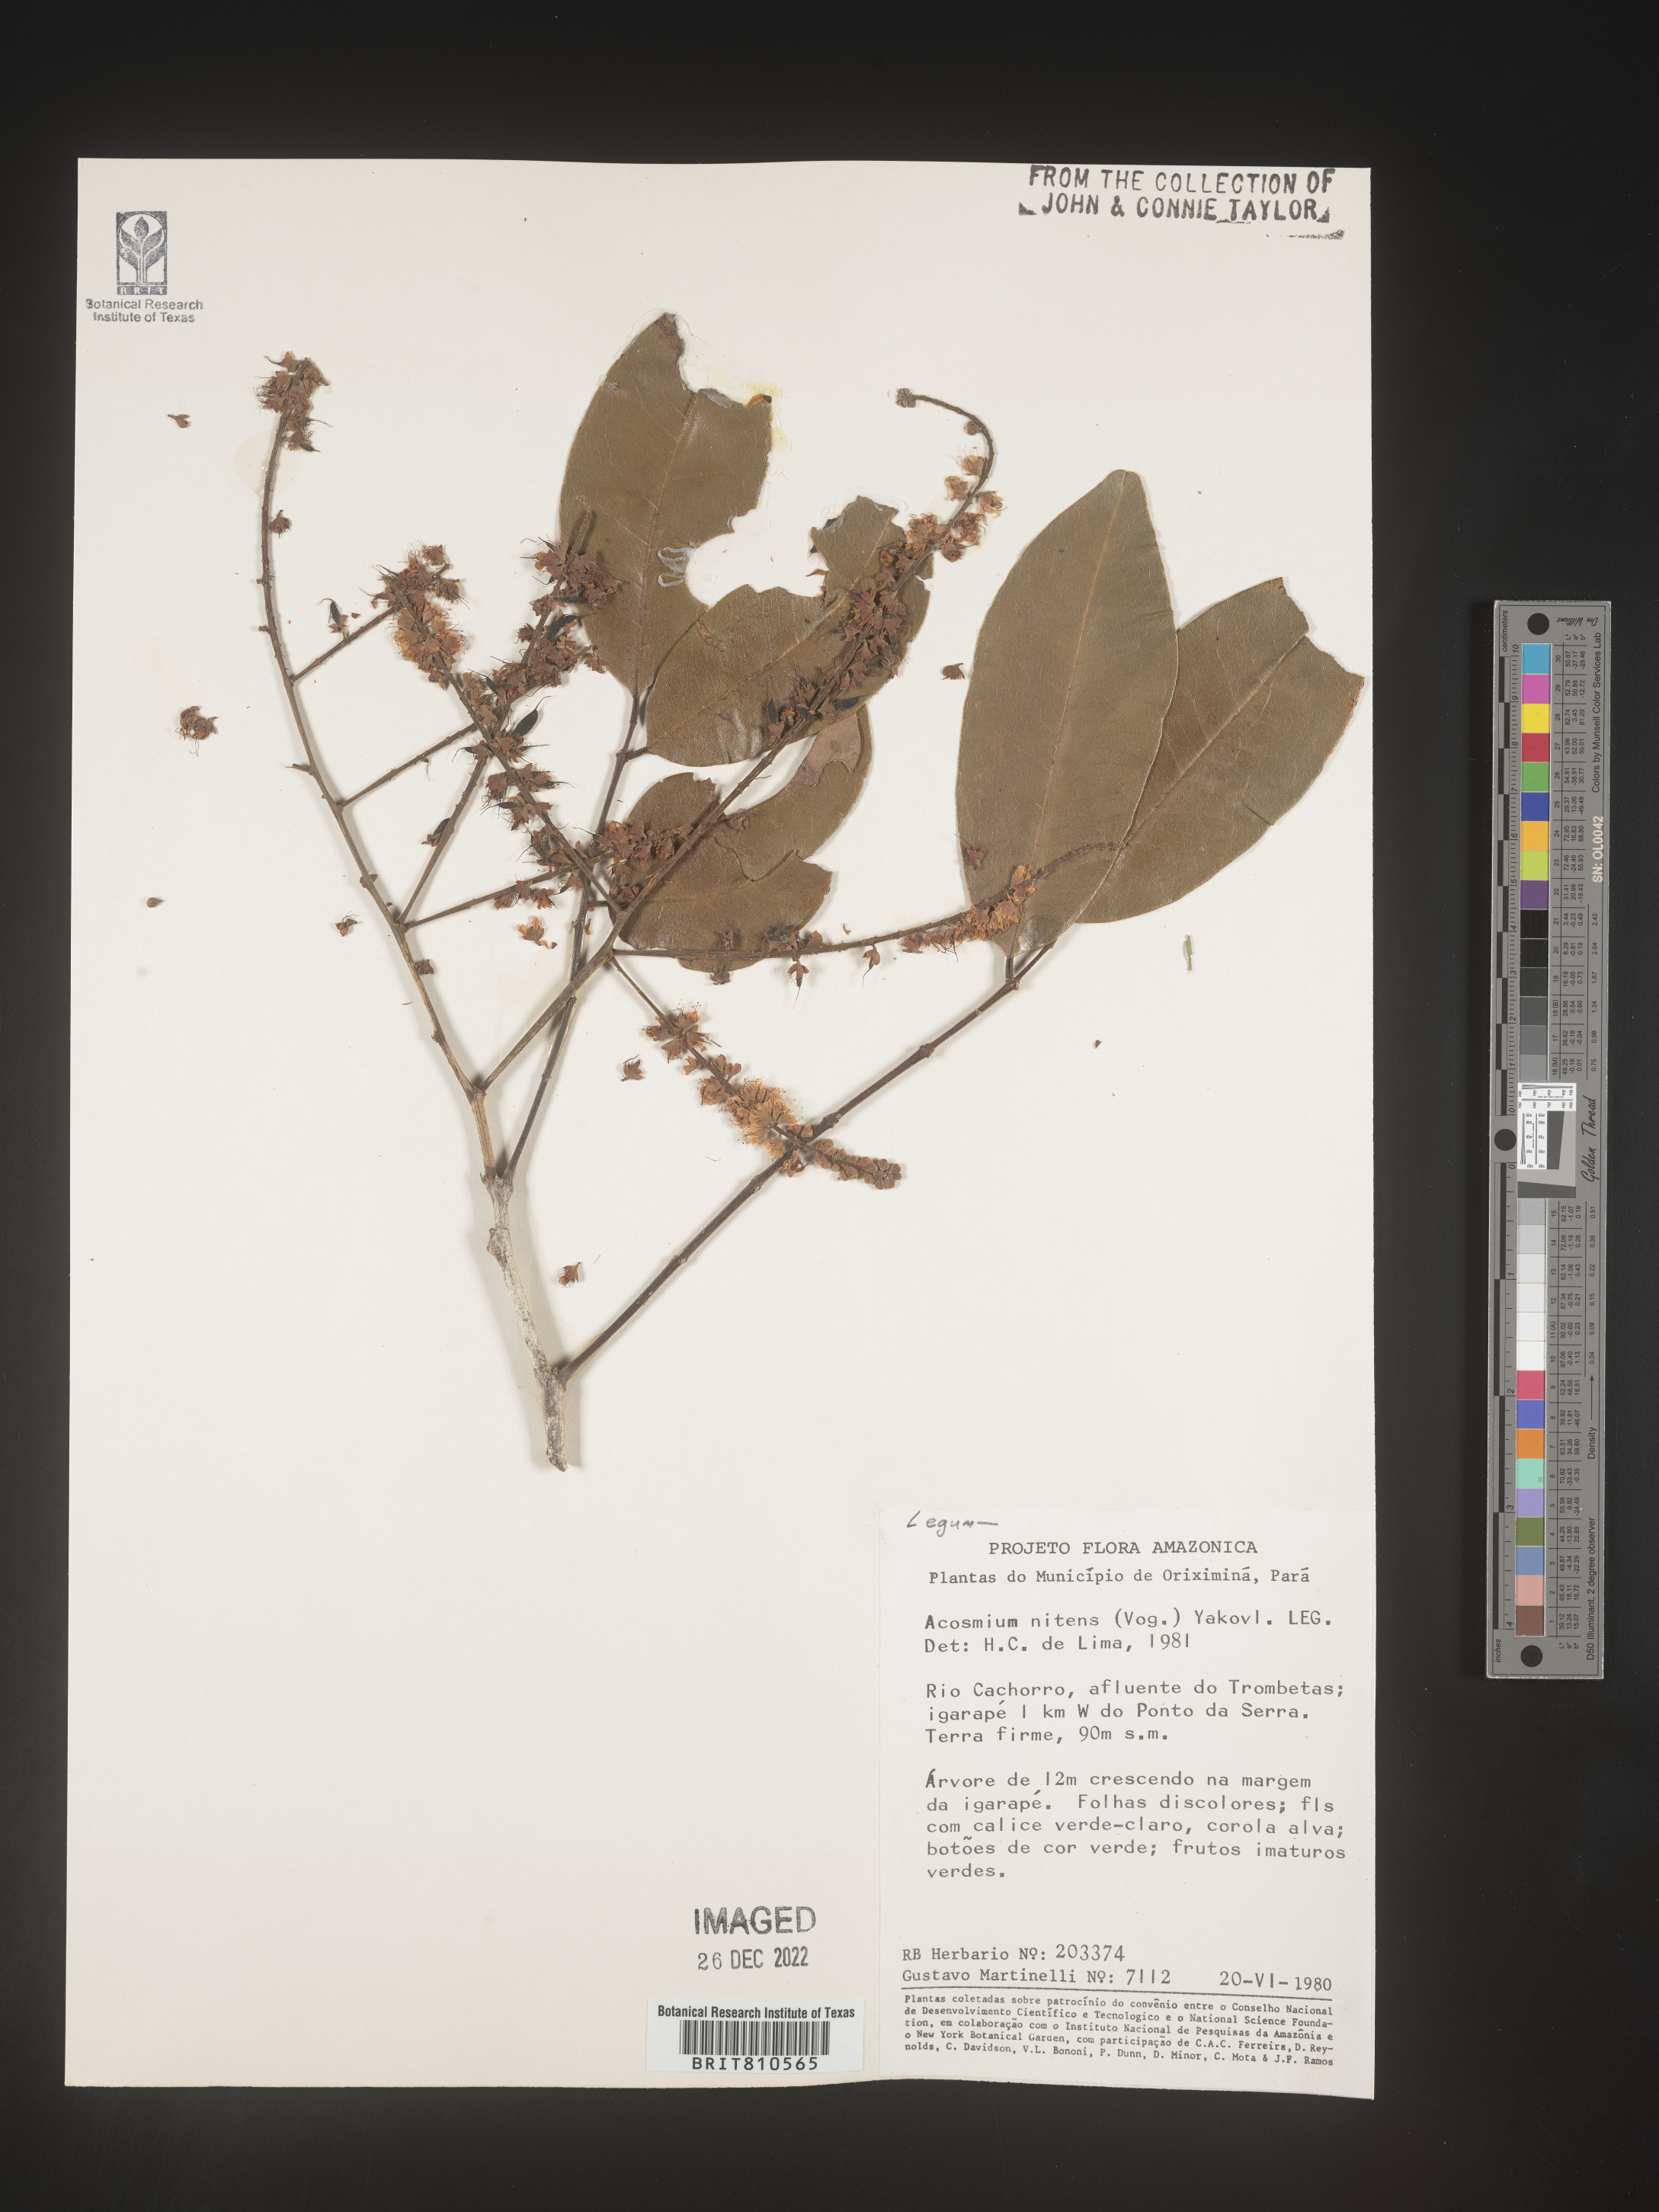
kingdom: Plantae
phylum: Tracheophyta
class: Magnoliopsida
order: Fabales
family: Fabaceae
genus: Acosmium
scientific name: Acosmium
